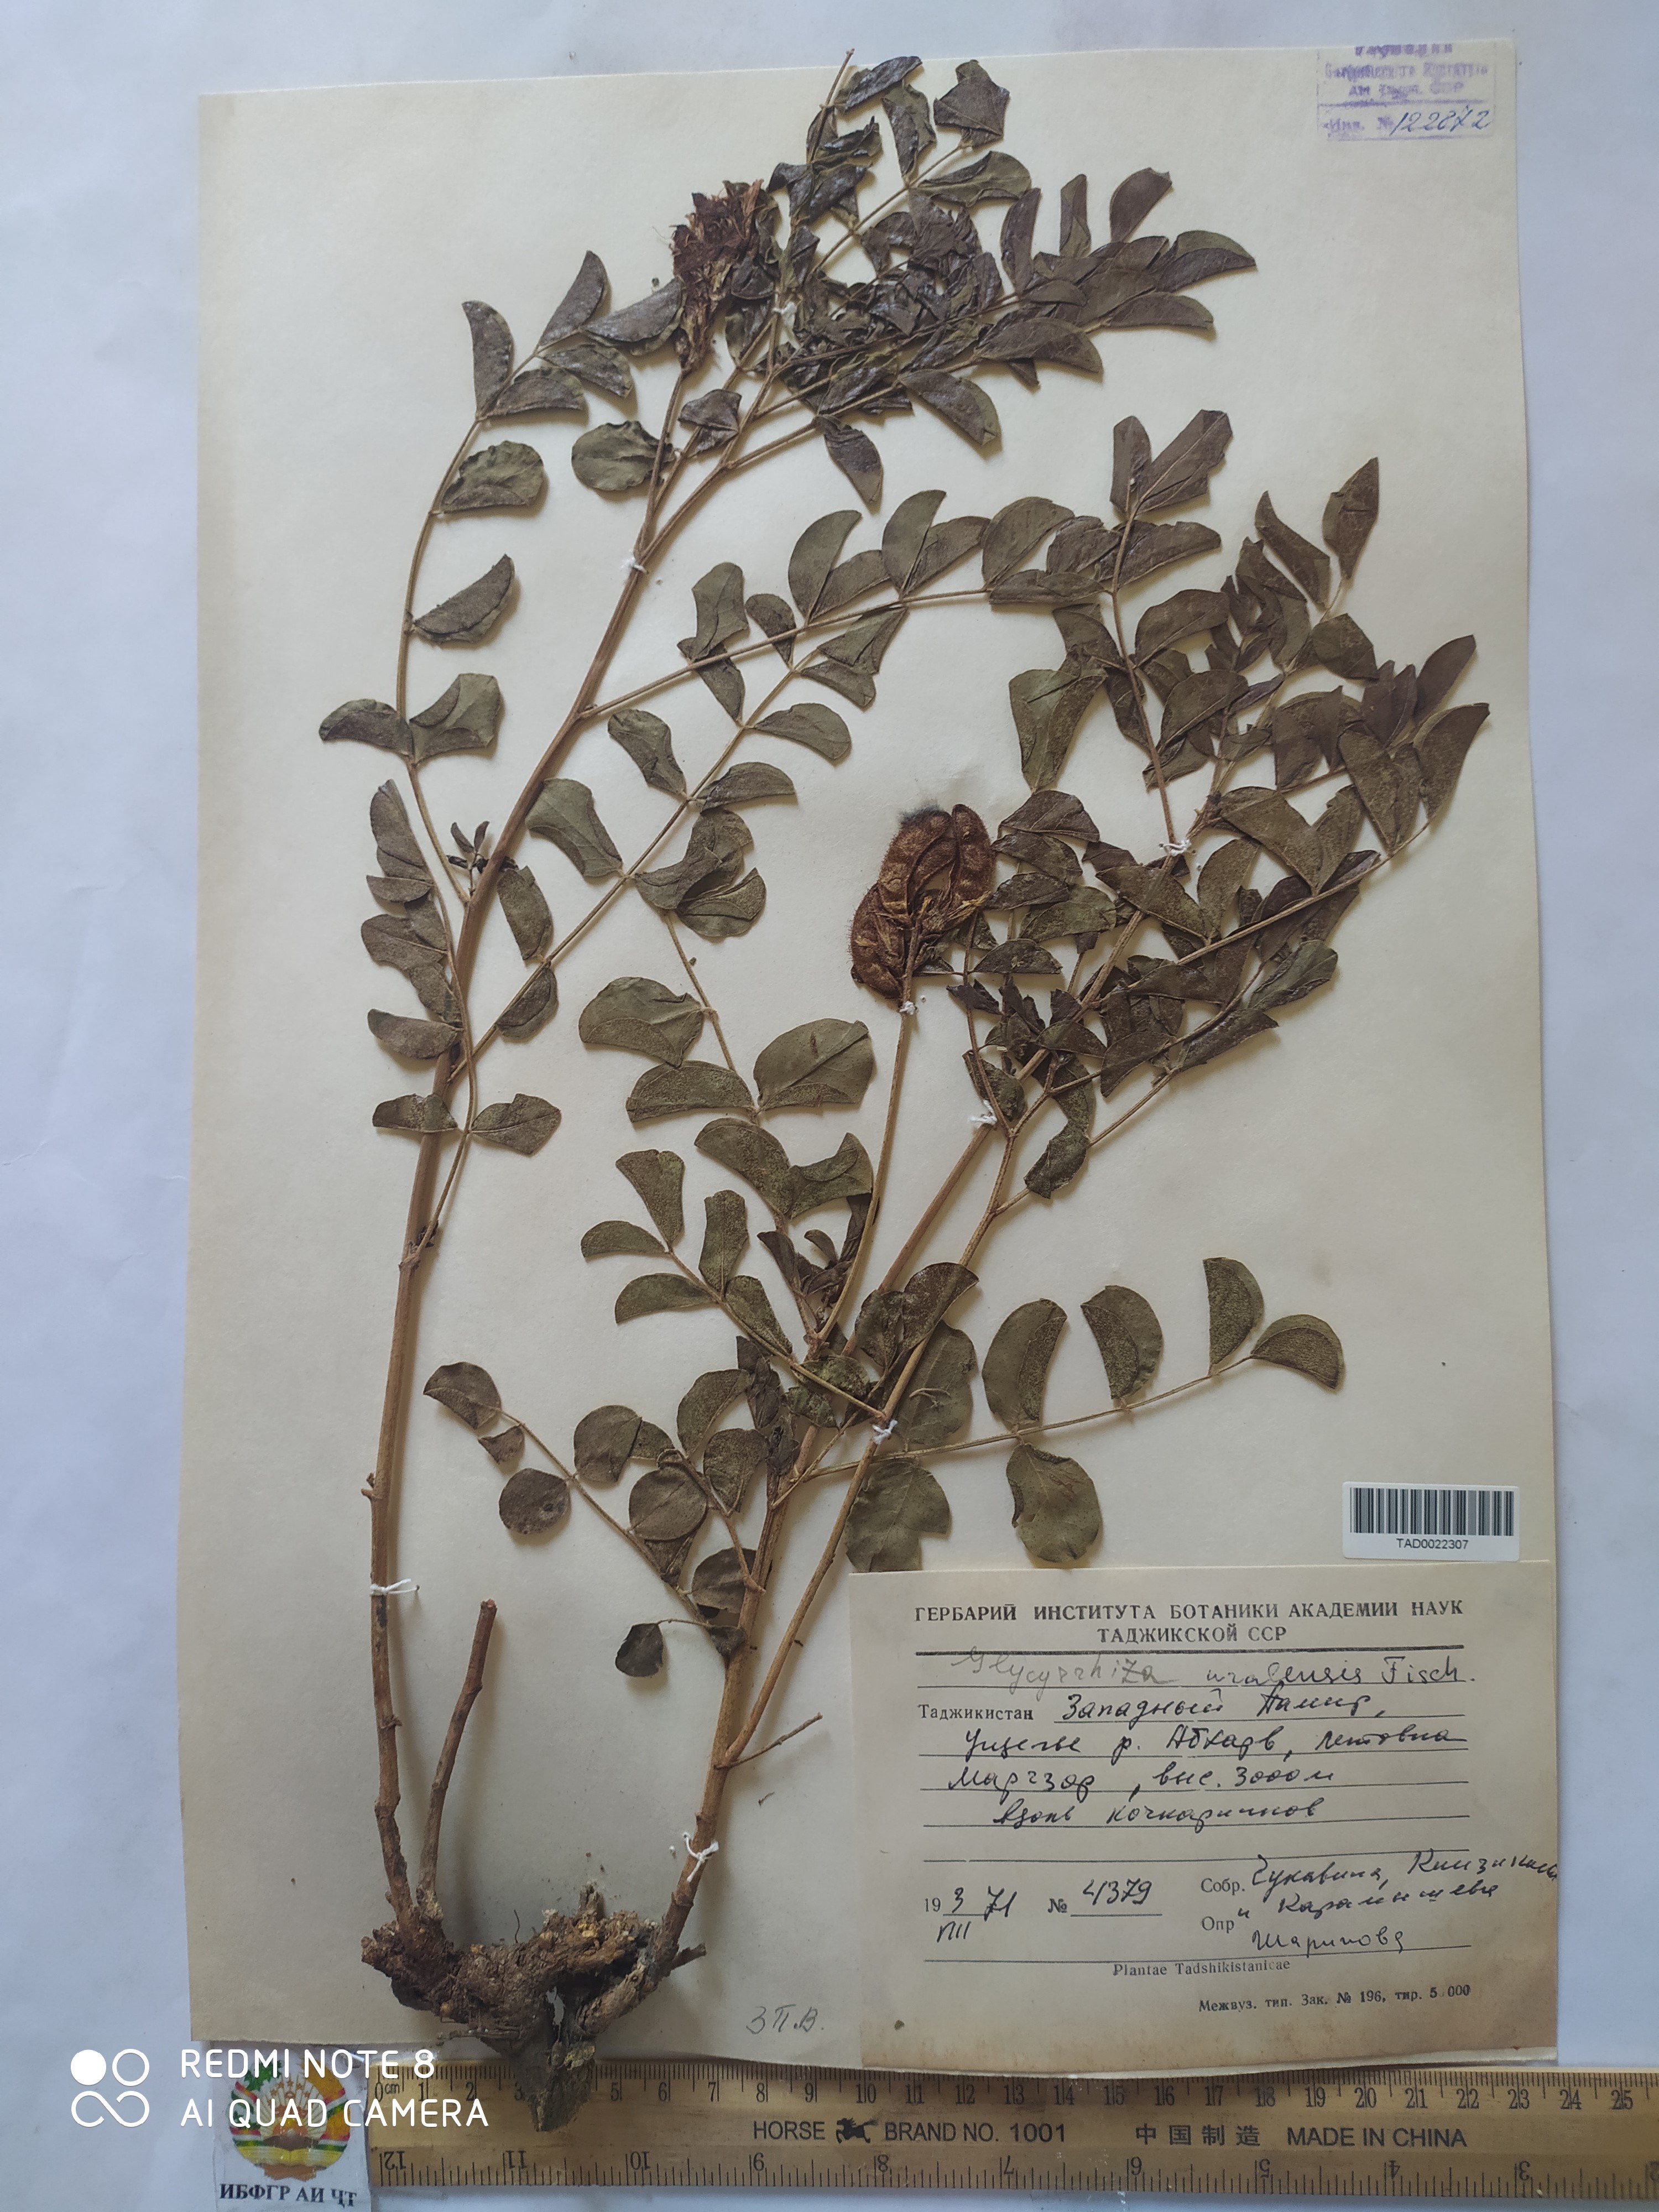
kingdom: Plantae
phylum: Tracheophyta
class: Magnoliopsida
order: Fabales
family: Fabaceae
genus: Glycyrrhiza
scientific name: Glycyrrhiza uralensis
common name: Chinese licorice
